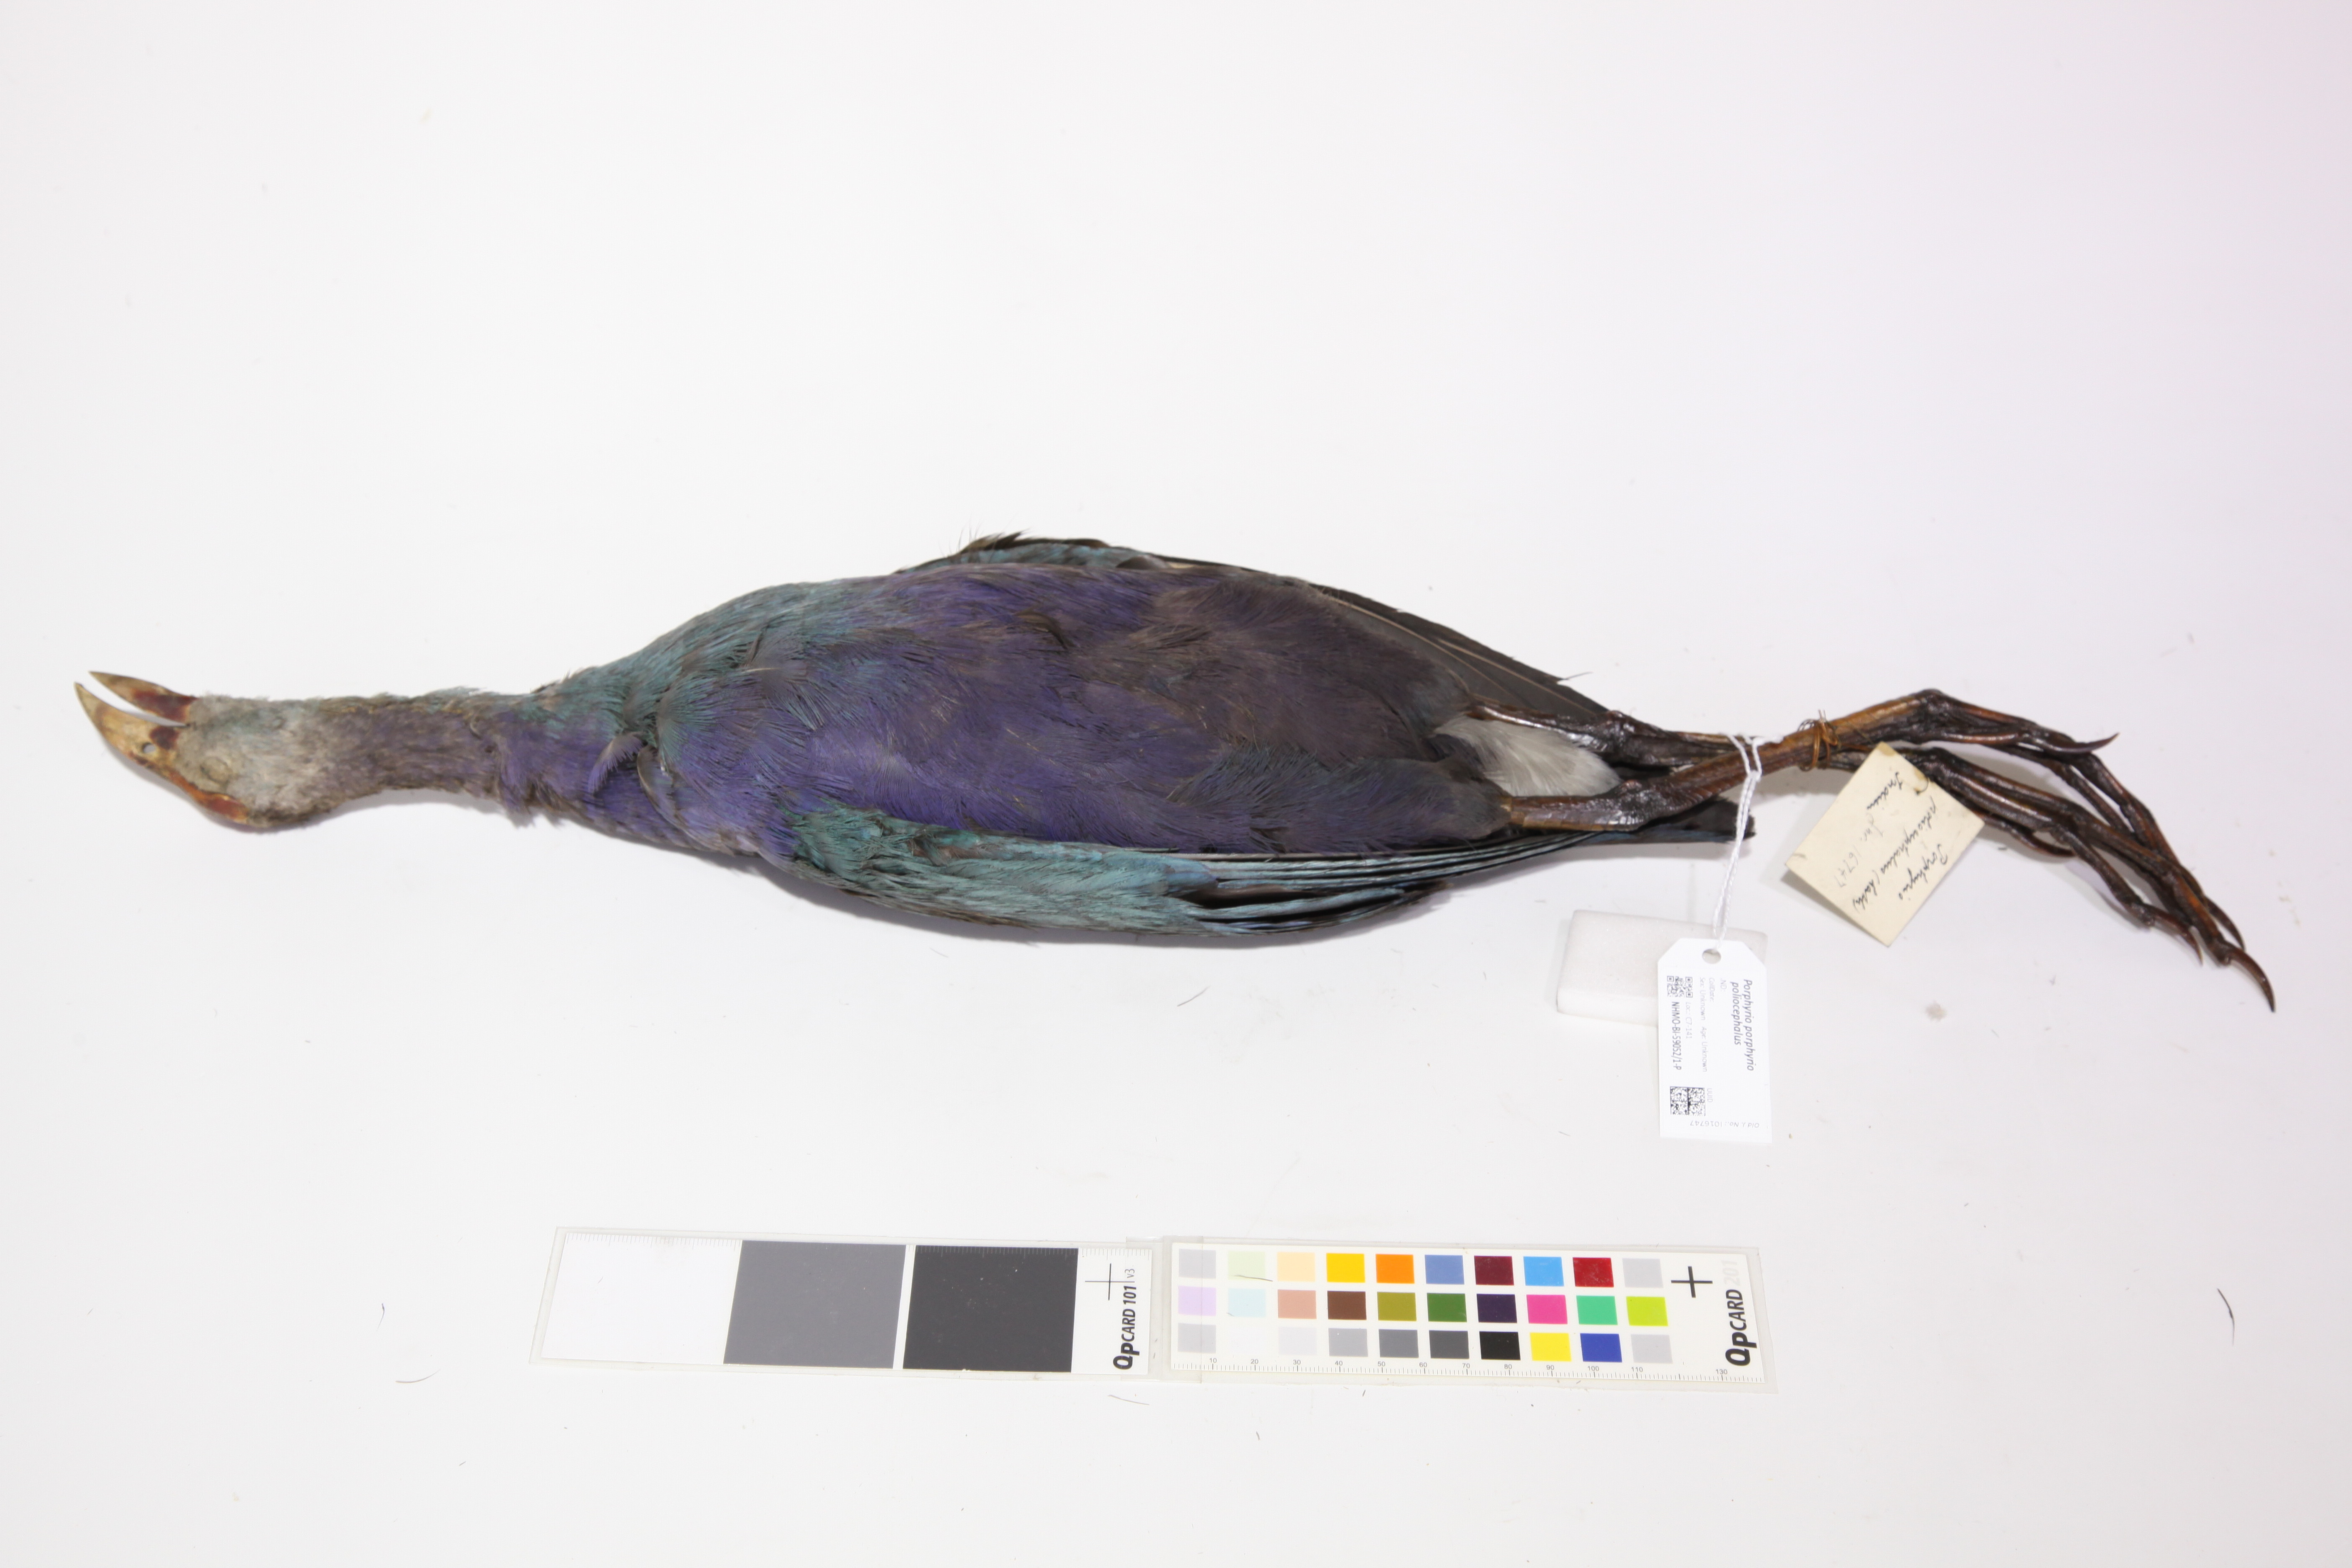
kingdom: Animalia
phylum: Chordata
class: Aves
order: Gruiformes
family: Rallidae
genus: Porphyrio
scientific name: Porphyrio porphyrio
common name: Purple swamphen
